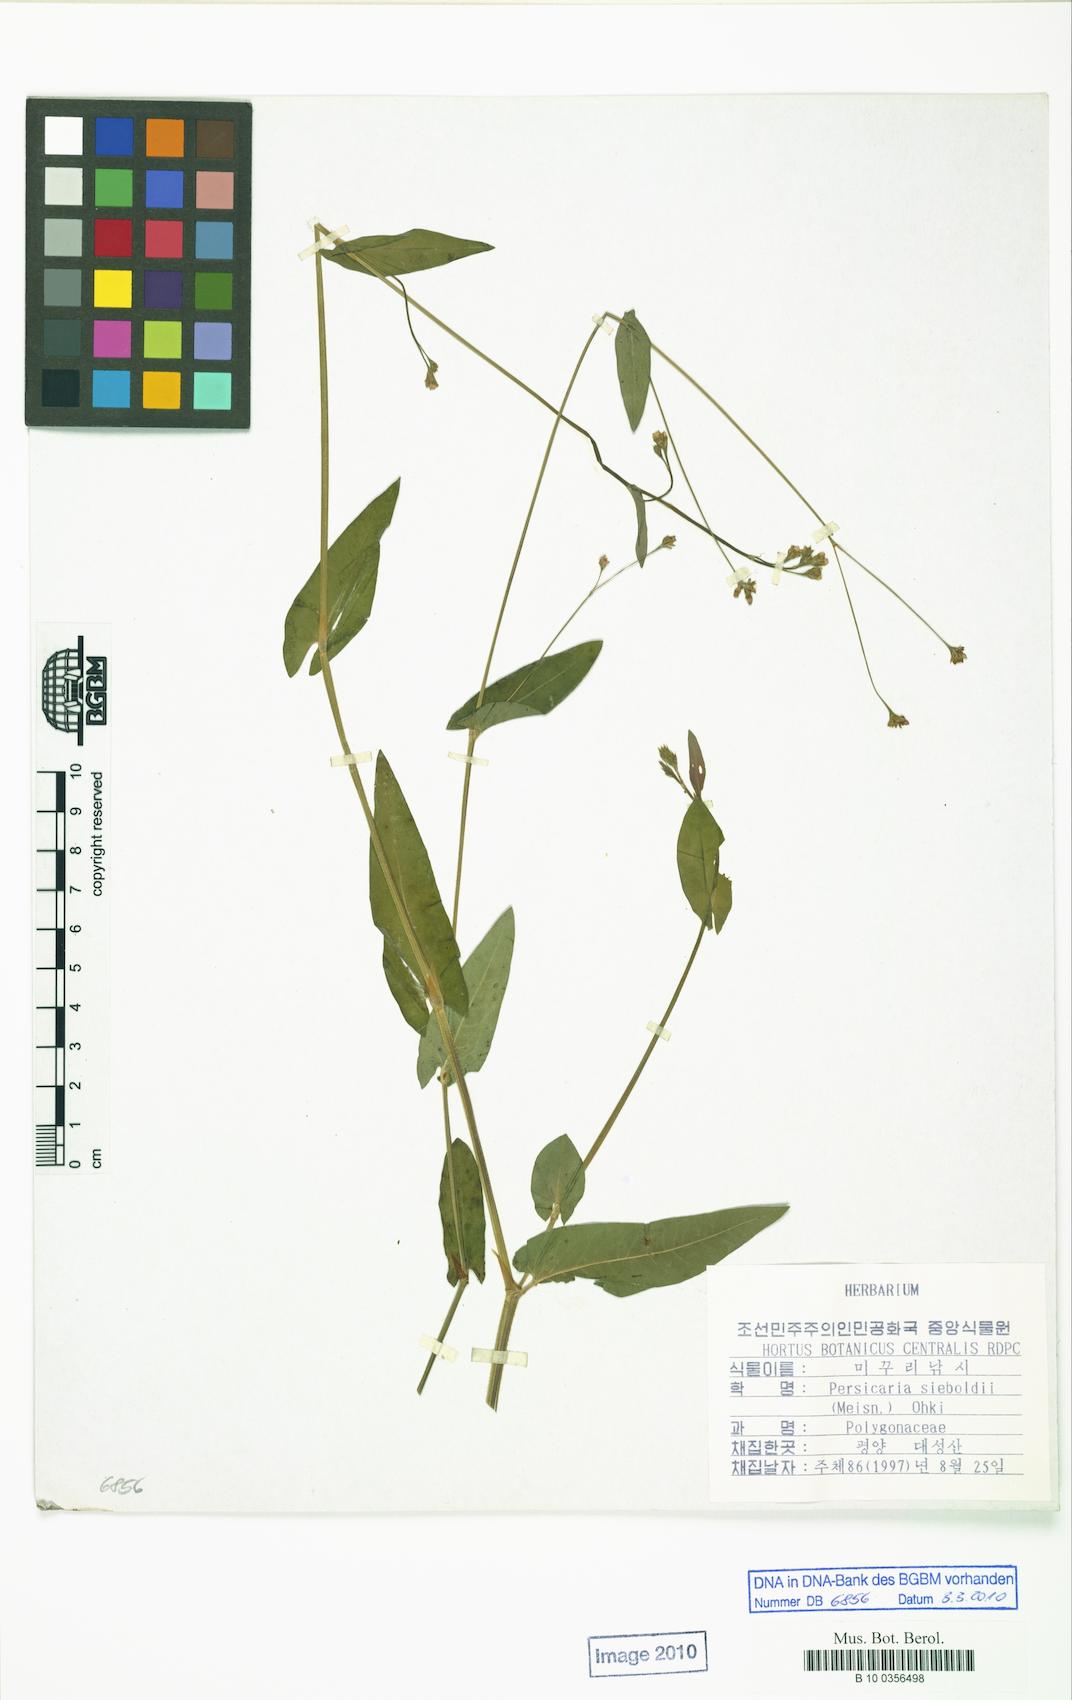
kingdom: Plantae
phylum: Tracheophyta
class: Magnoliopsida
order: Caryophyllales
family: Polygonaceae
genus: Persicaria
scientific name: Persicaria sagittata
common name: American tearthumb
